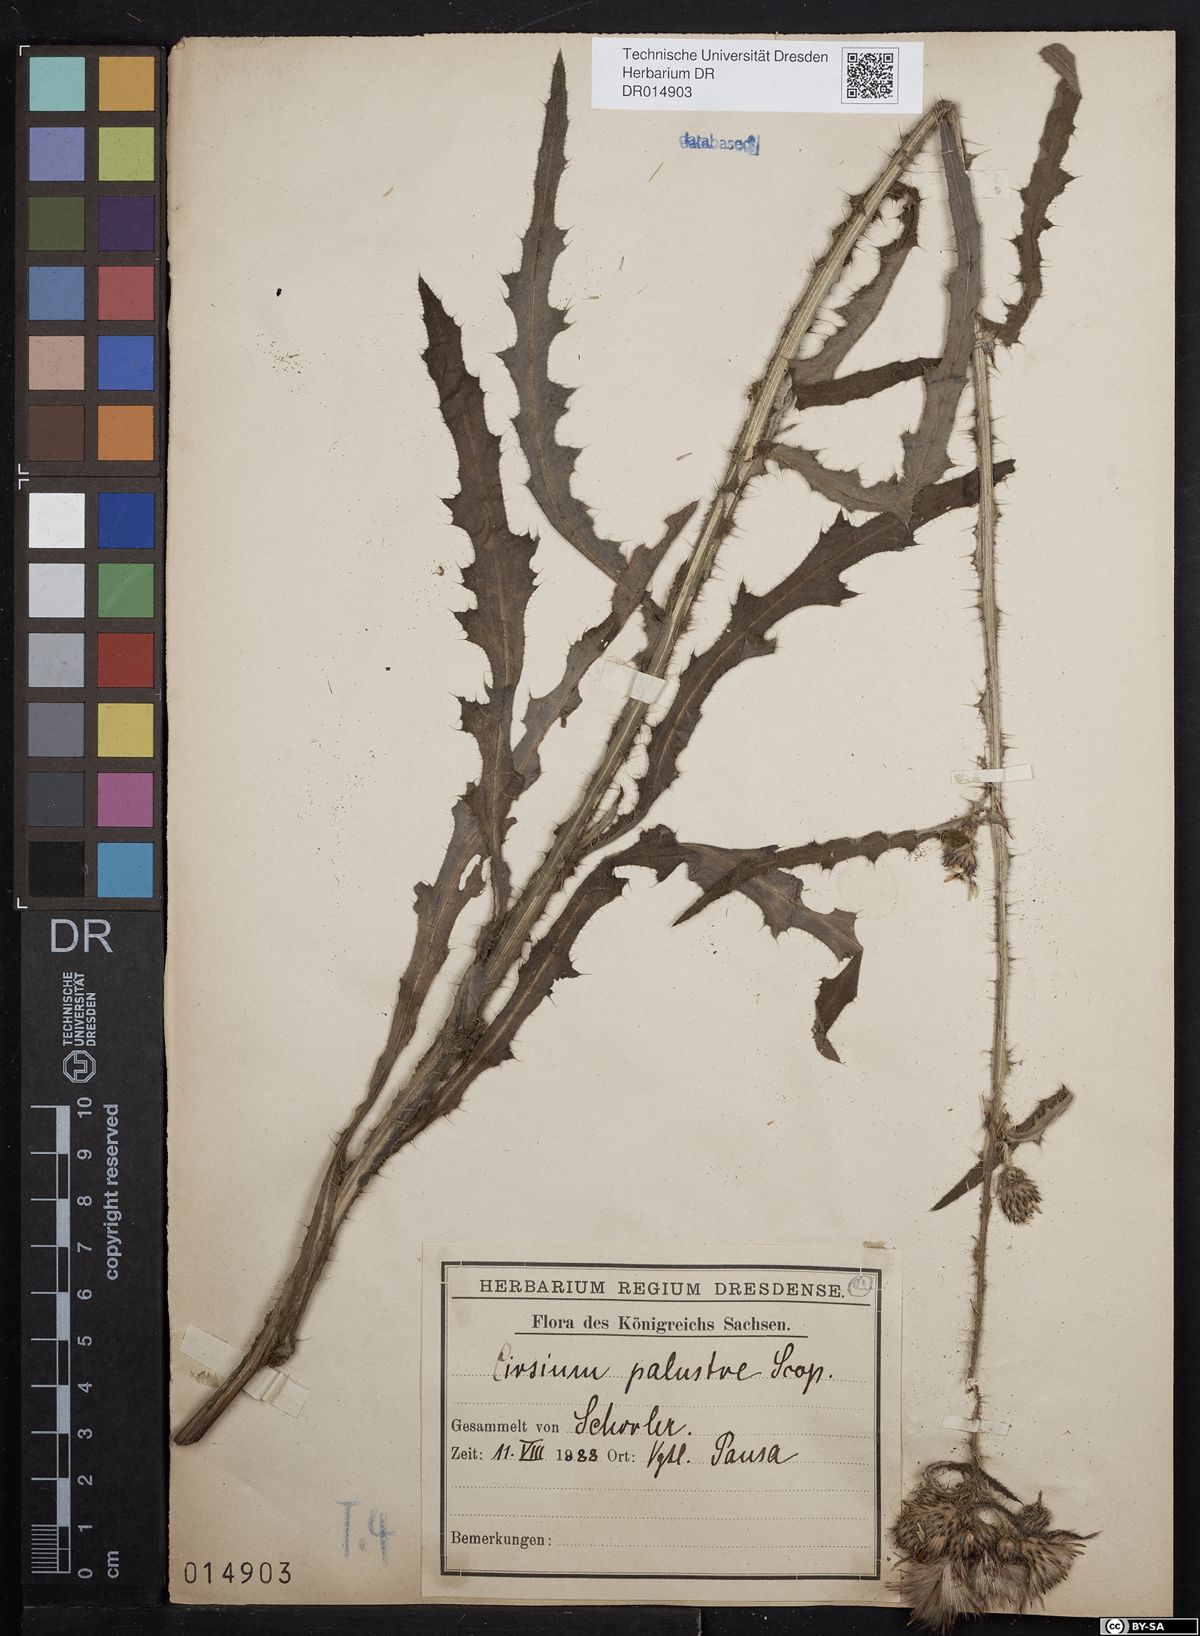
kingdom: Plantae
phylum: Tracheophyta
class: Magnoliopsida
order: Asterales
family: Asteraceae
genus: Cirsium
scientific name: Cirsium palustre
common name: Marsh thistle
